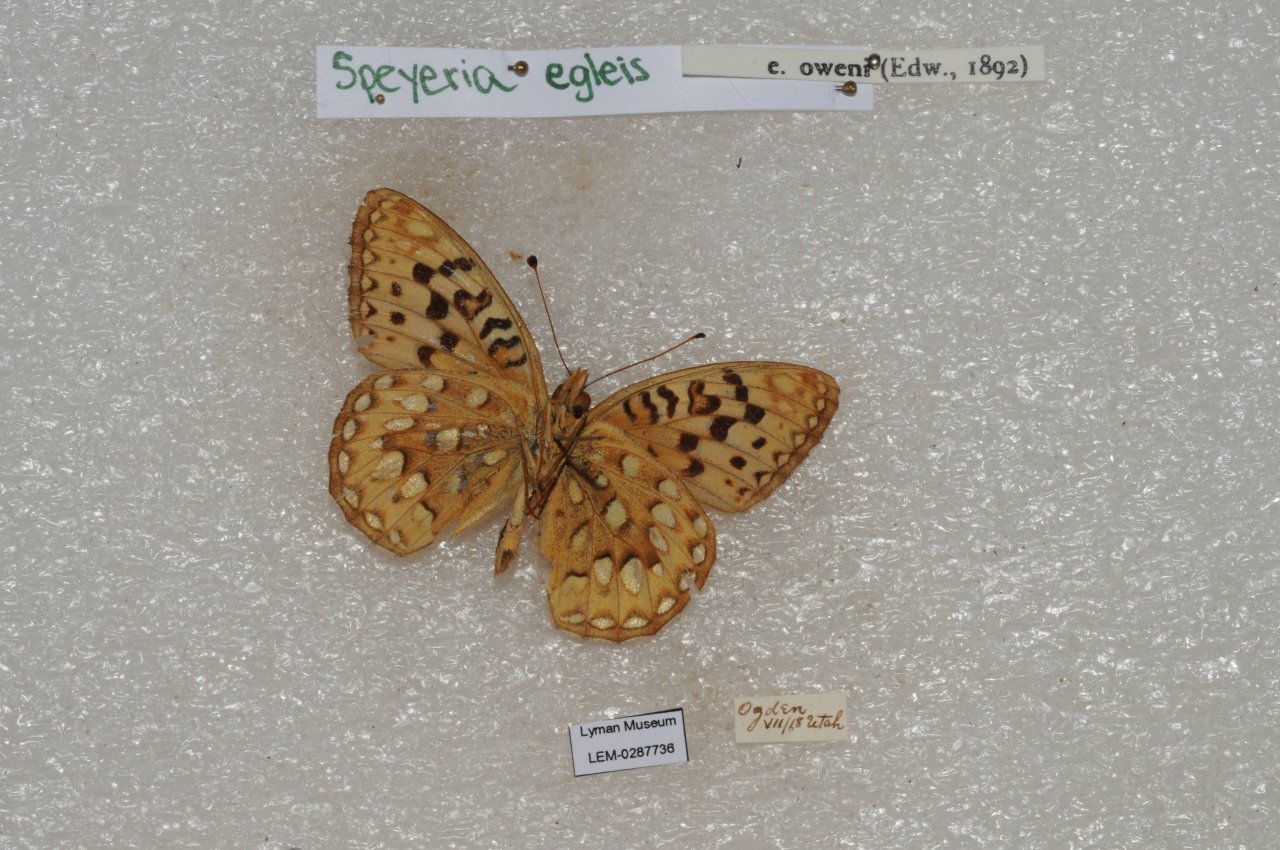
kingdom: Animalia
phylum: Arthropoda
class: Insecta
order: Lepidoptera
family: Nymphalidae
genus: Speyeria
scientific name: Speyeria egleis
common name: Great Basin Fritillary
